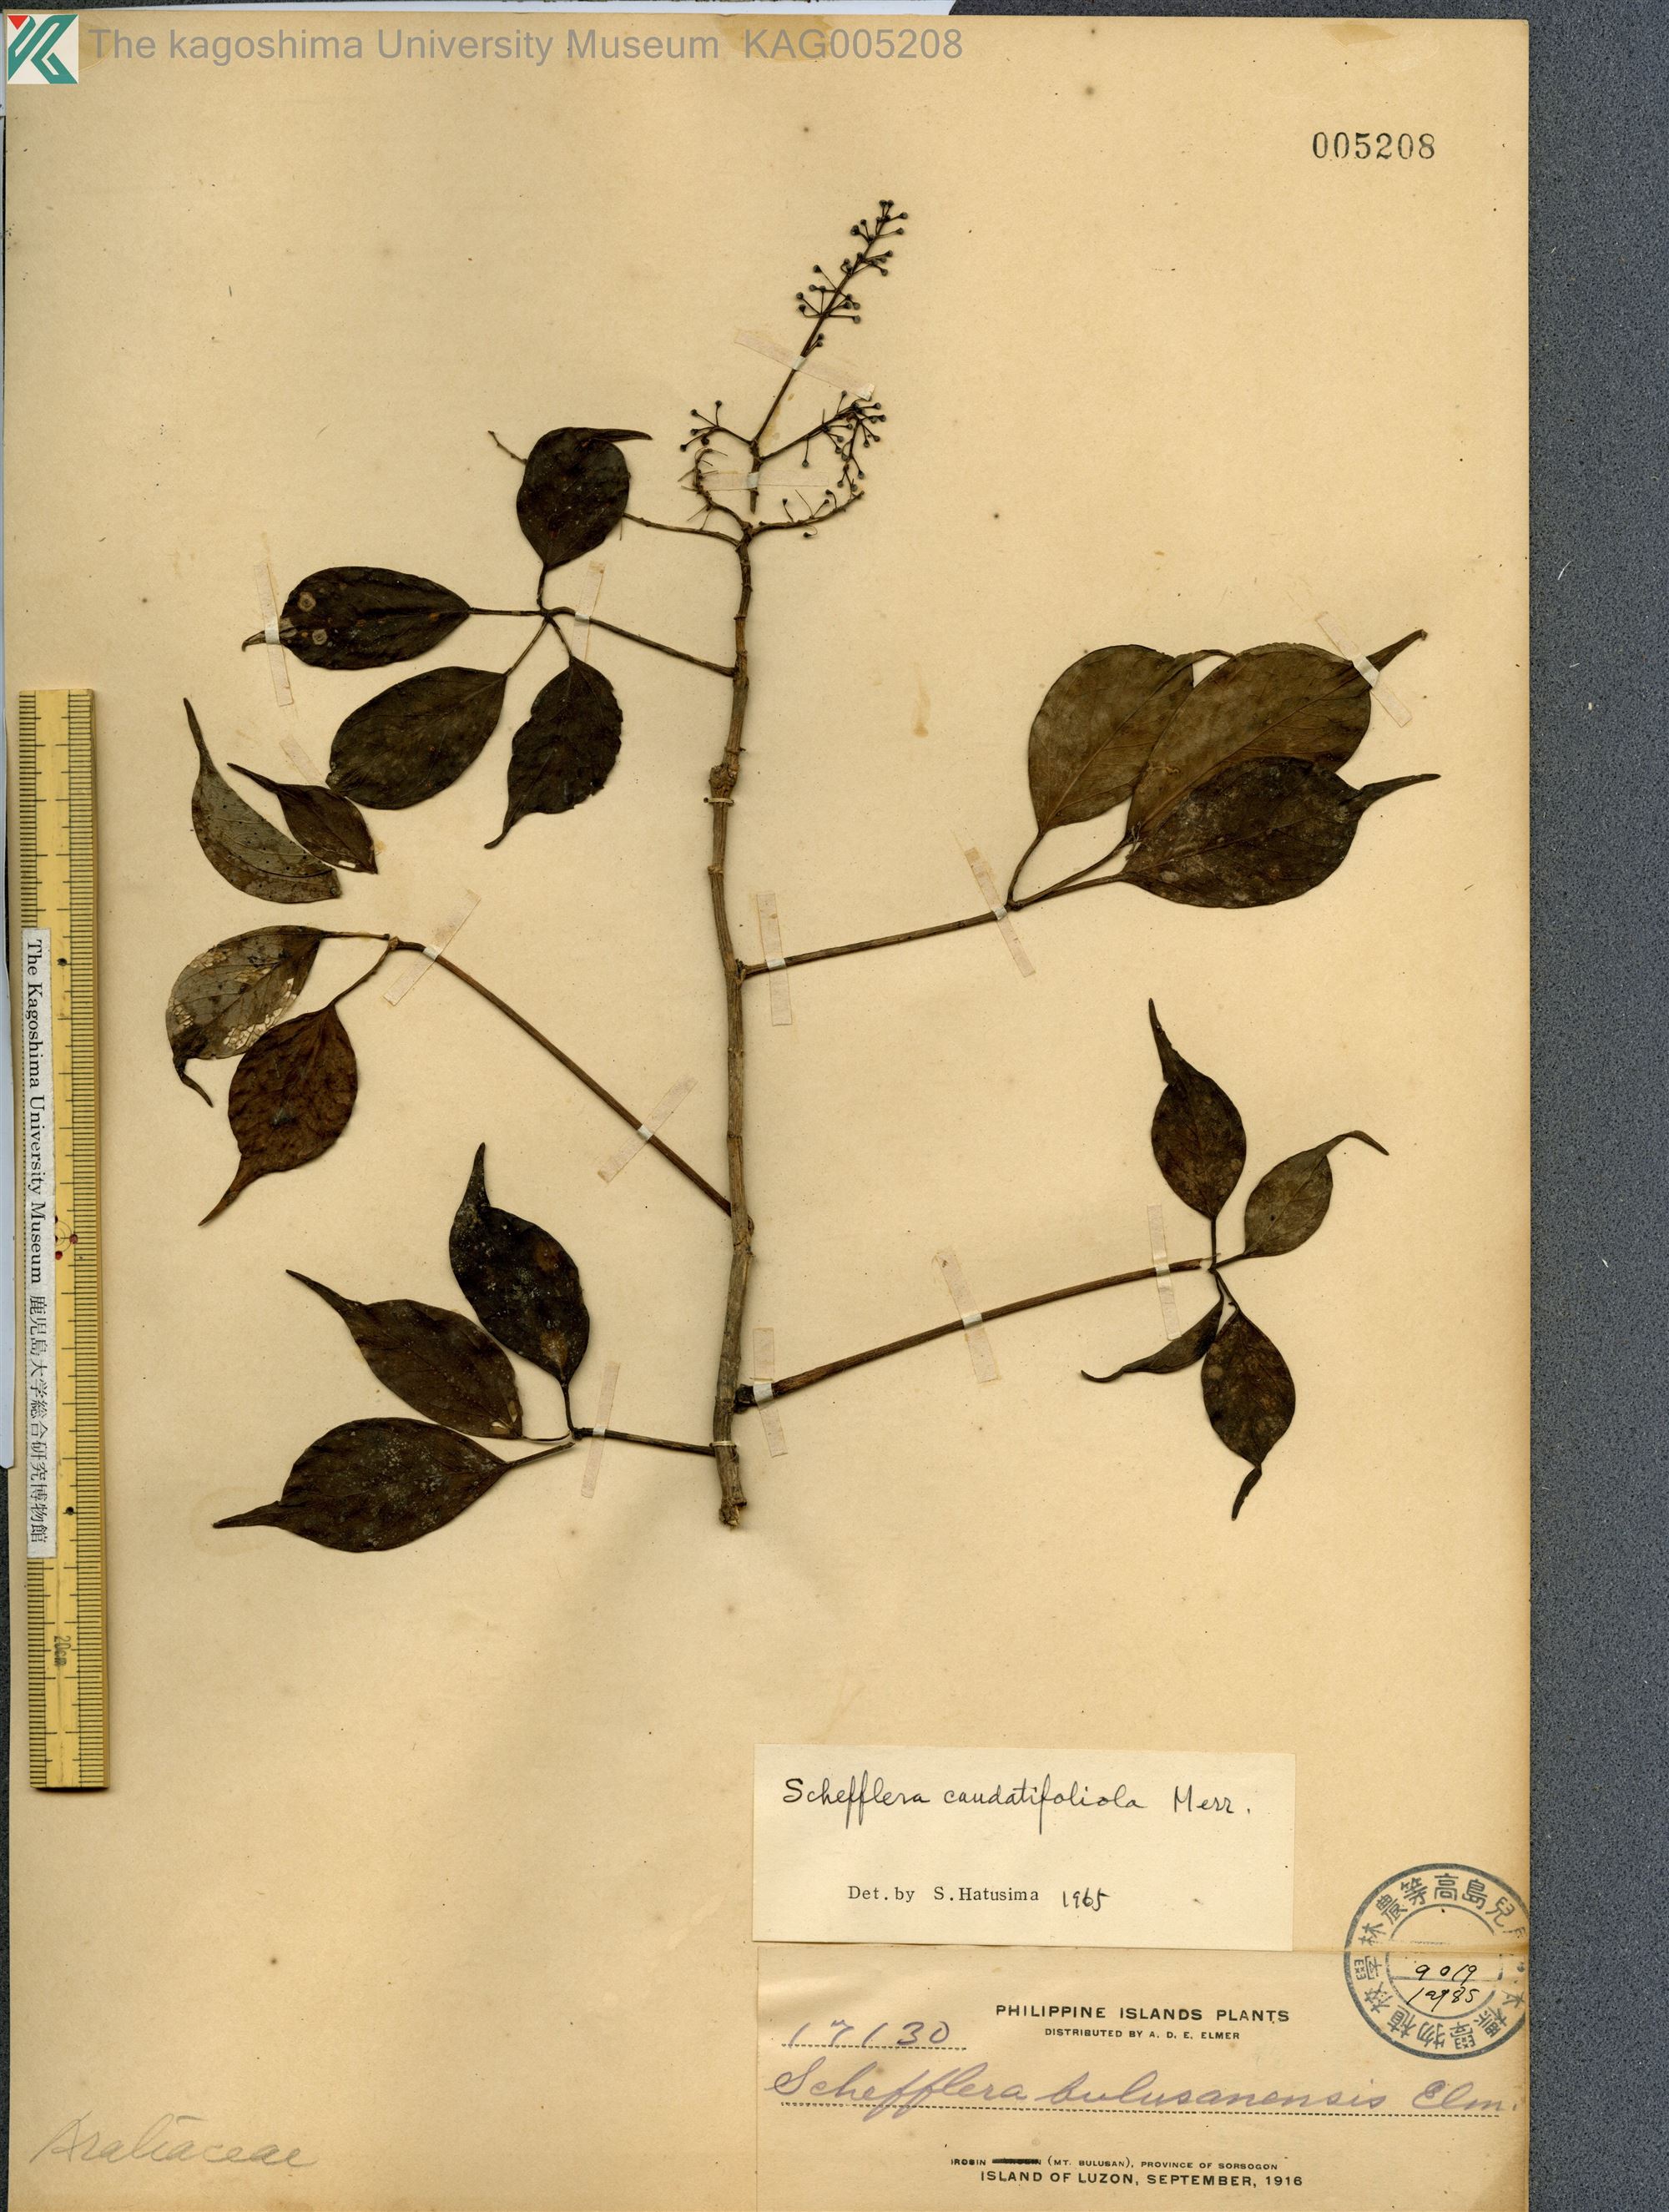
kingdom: Plantae
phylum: Tracheophyta
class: Magnoliopsida
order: Apiales
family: Araliaceae
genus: Heptapleurum
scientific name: Heptapleurum caudatifolium
